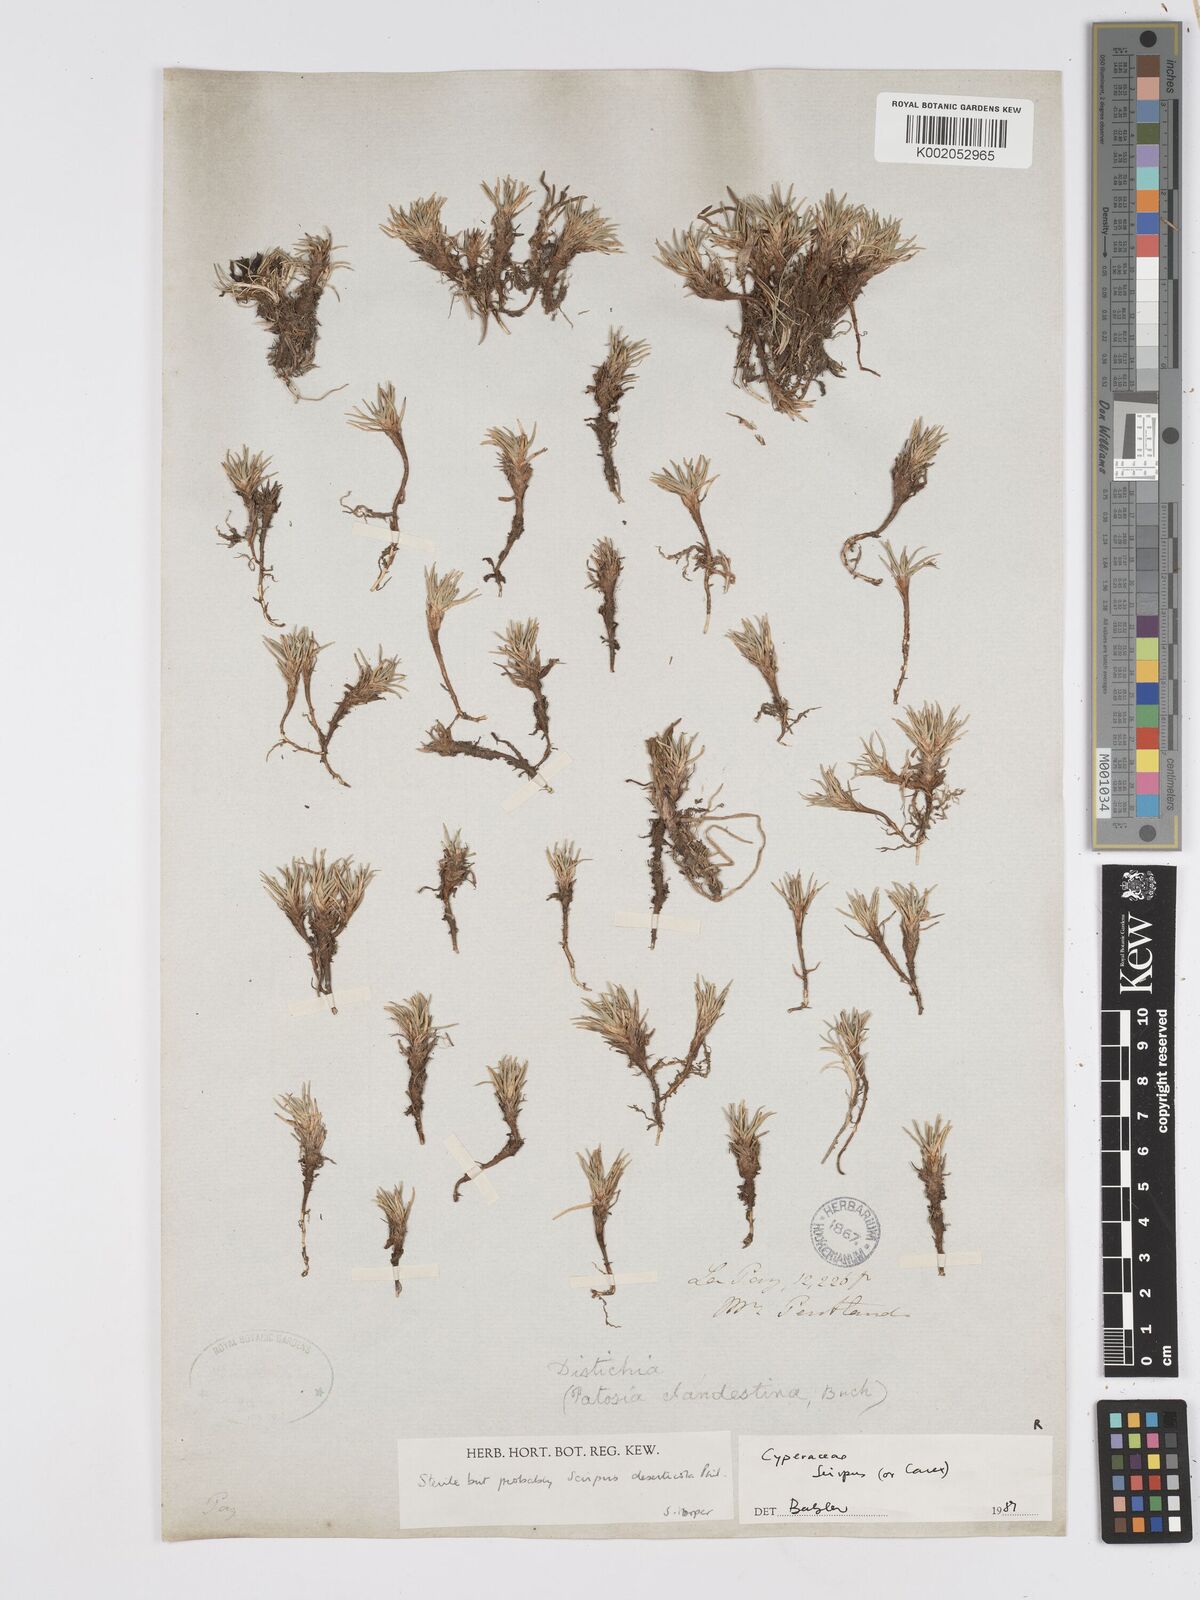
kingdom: Plantae
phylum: Tracheophyta
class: Liliopsida
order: Poales
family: Cyperaceae
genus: Scirpus
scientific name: Scirpus
